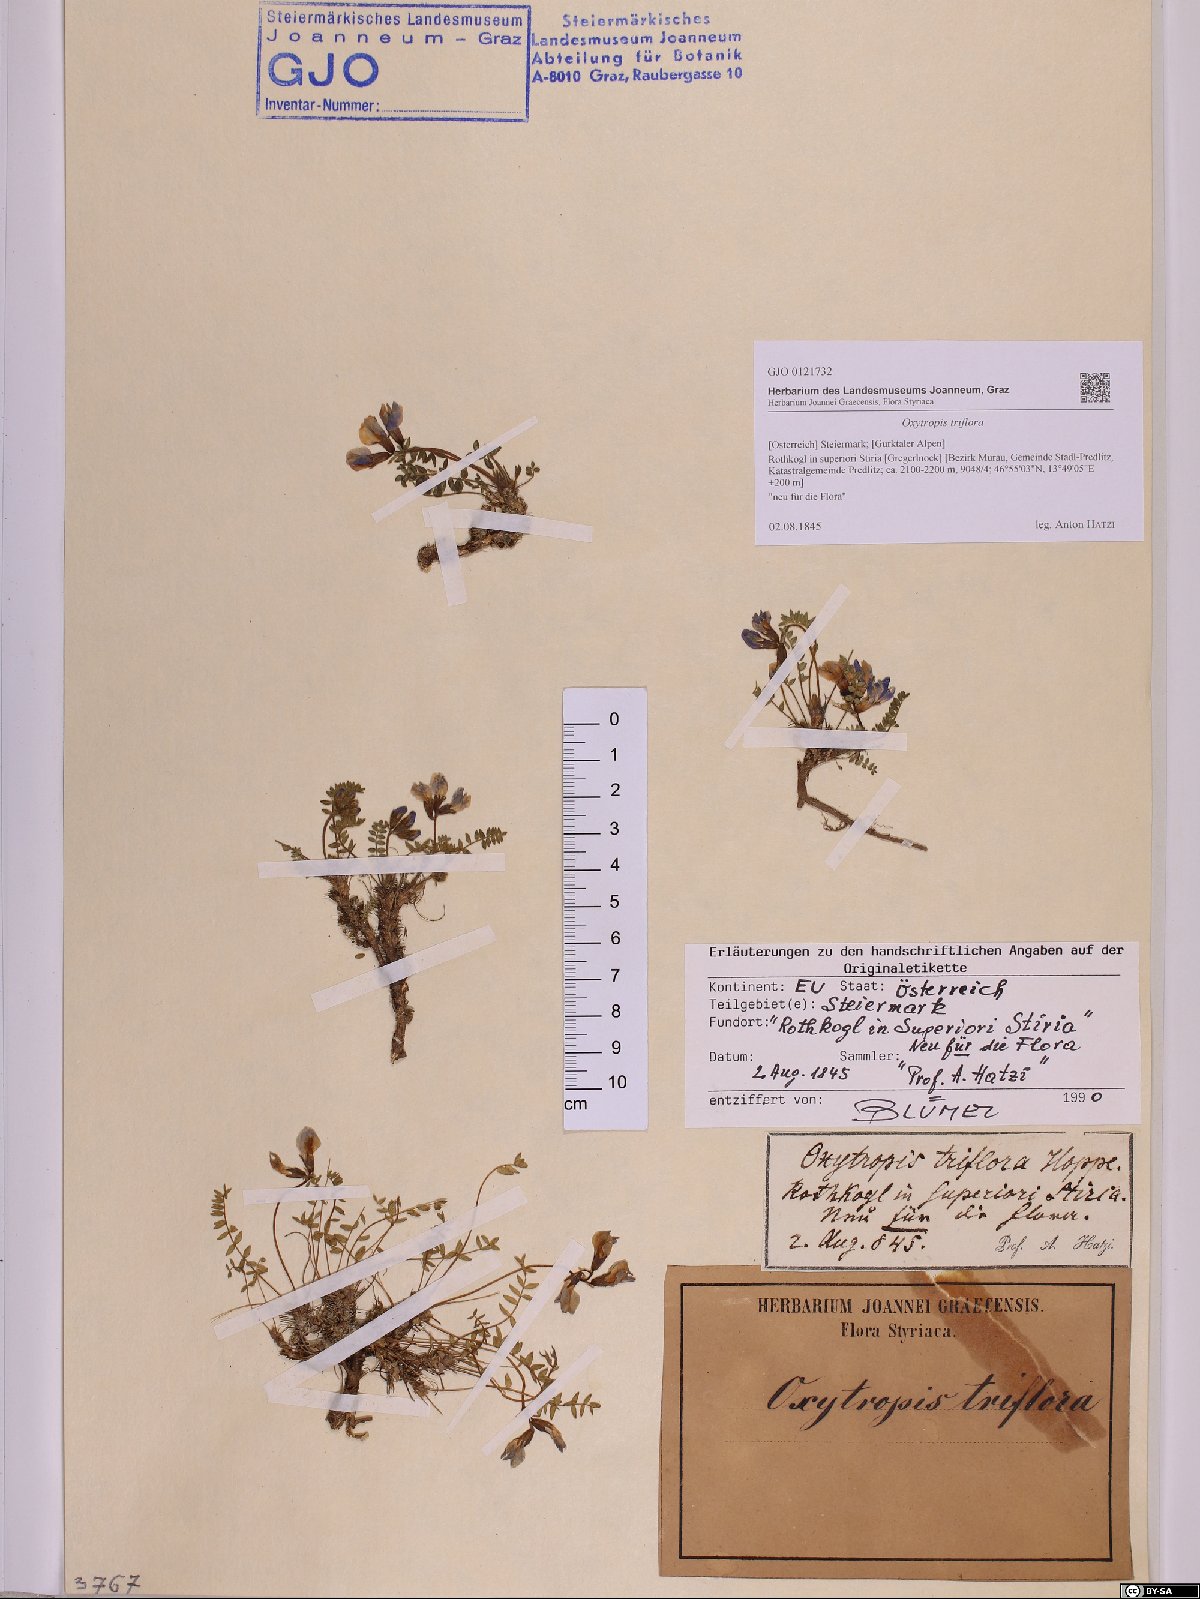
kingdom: Plantae
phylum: Tracheophyta
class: Magnoliopsida
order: Fabales
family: Fabaceae
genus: Oxytropis
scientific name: Oxytropis triflora
